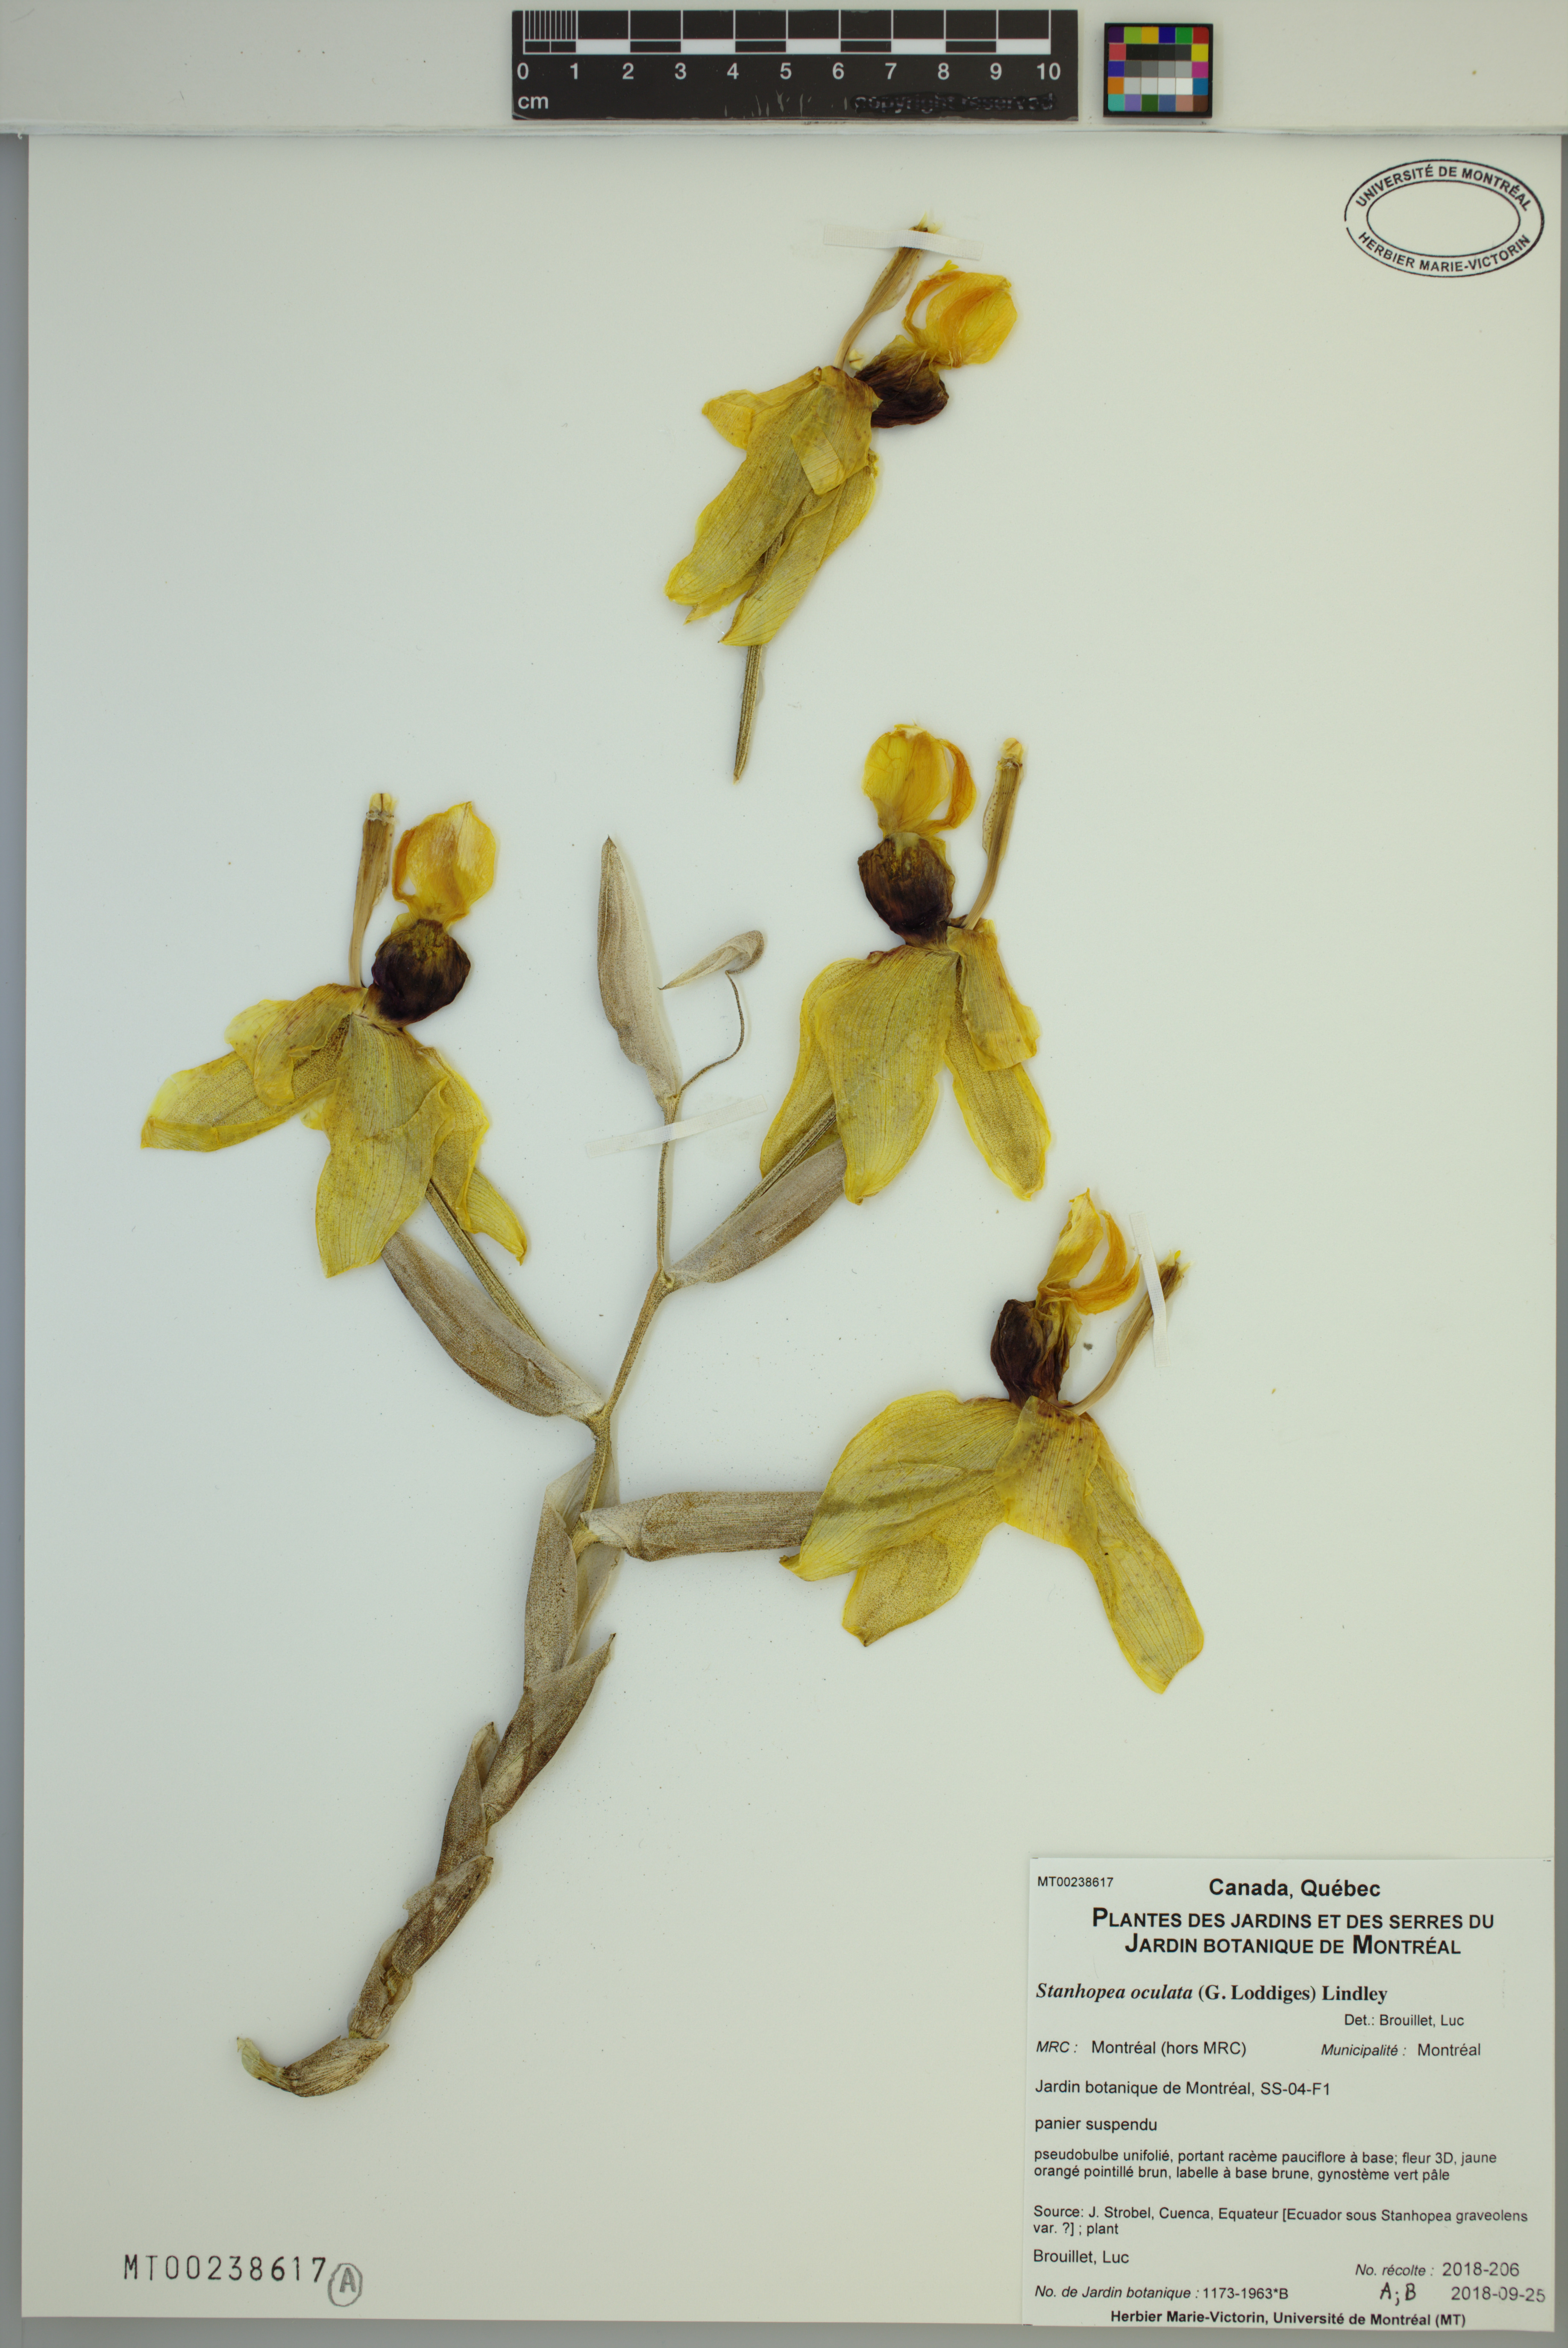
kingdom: Plantae
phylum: Tracheophyta
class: Liliopsida
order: Asparagales
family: Orchidaceae
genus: Stanhopea
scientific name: Stanhopea oculata
